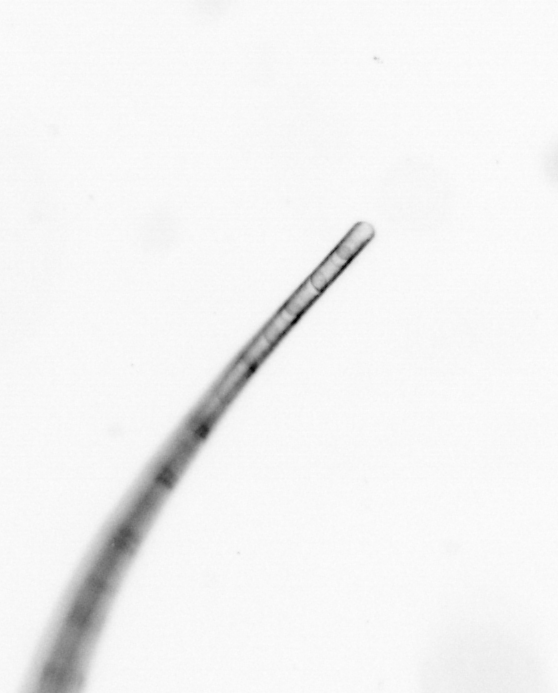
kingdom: Chromista
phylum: Ochrophyta
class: Bacillariophyceae
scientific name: Bacillariophyceae
